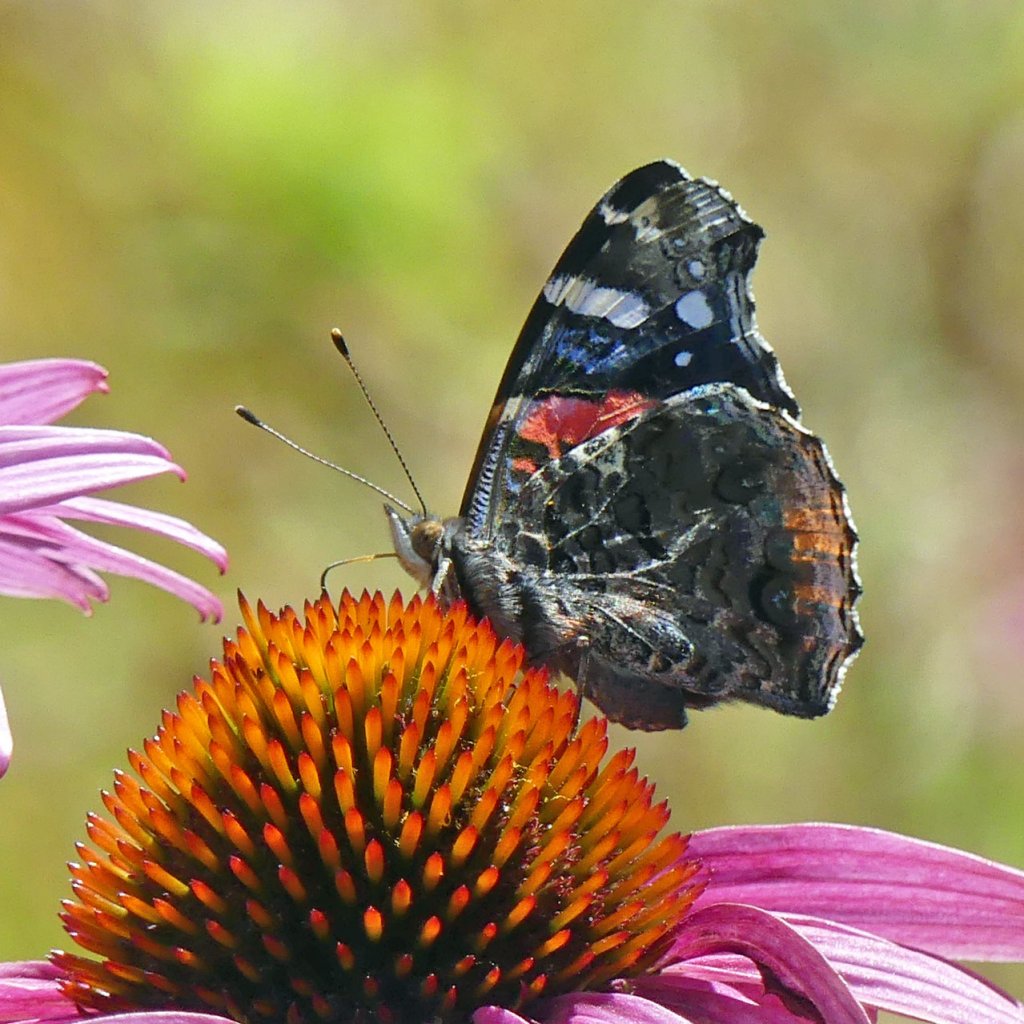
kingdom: Animalia
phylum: Arthropoda
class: Insecta
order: Lepidoptera
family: Nymphalidae
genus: Vanessa
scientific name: Vanessa atalanta
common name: Red Admiral
